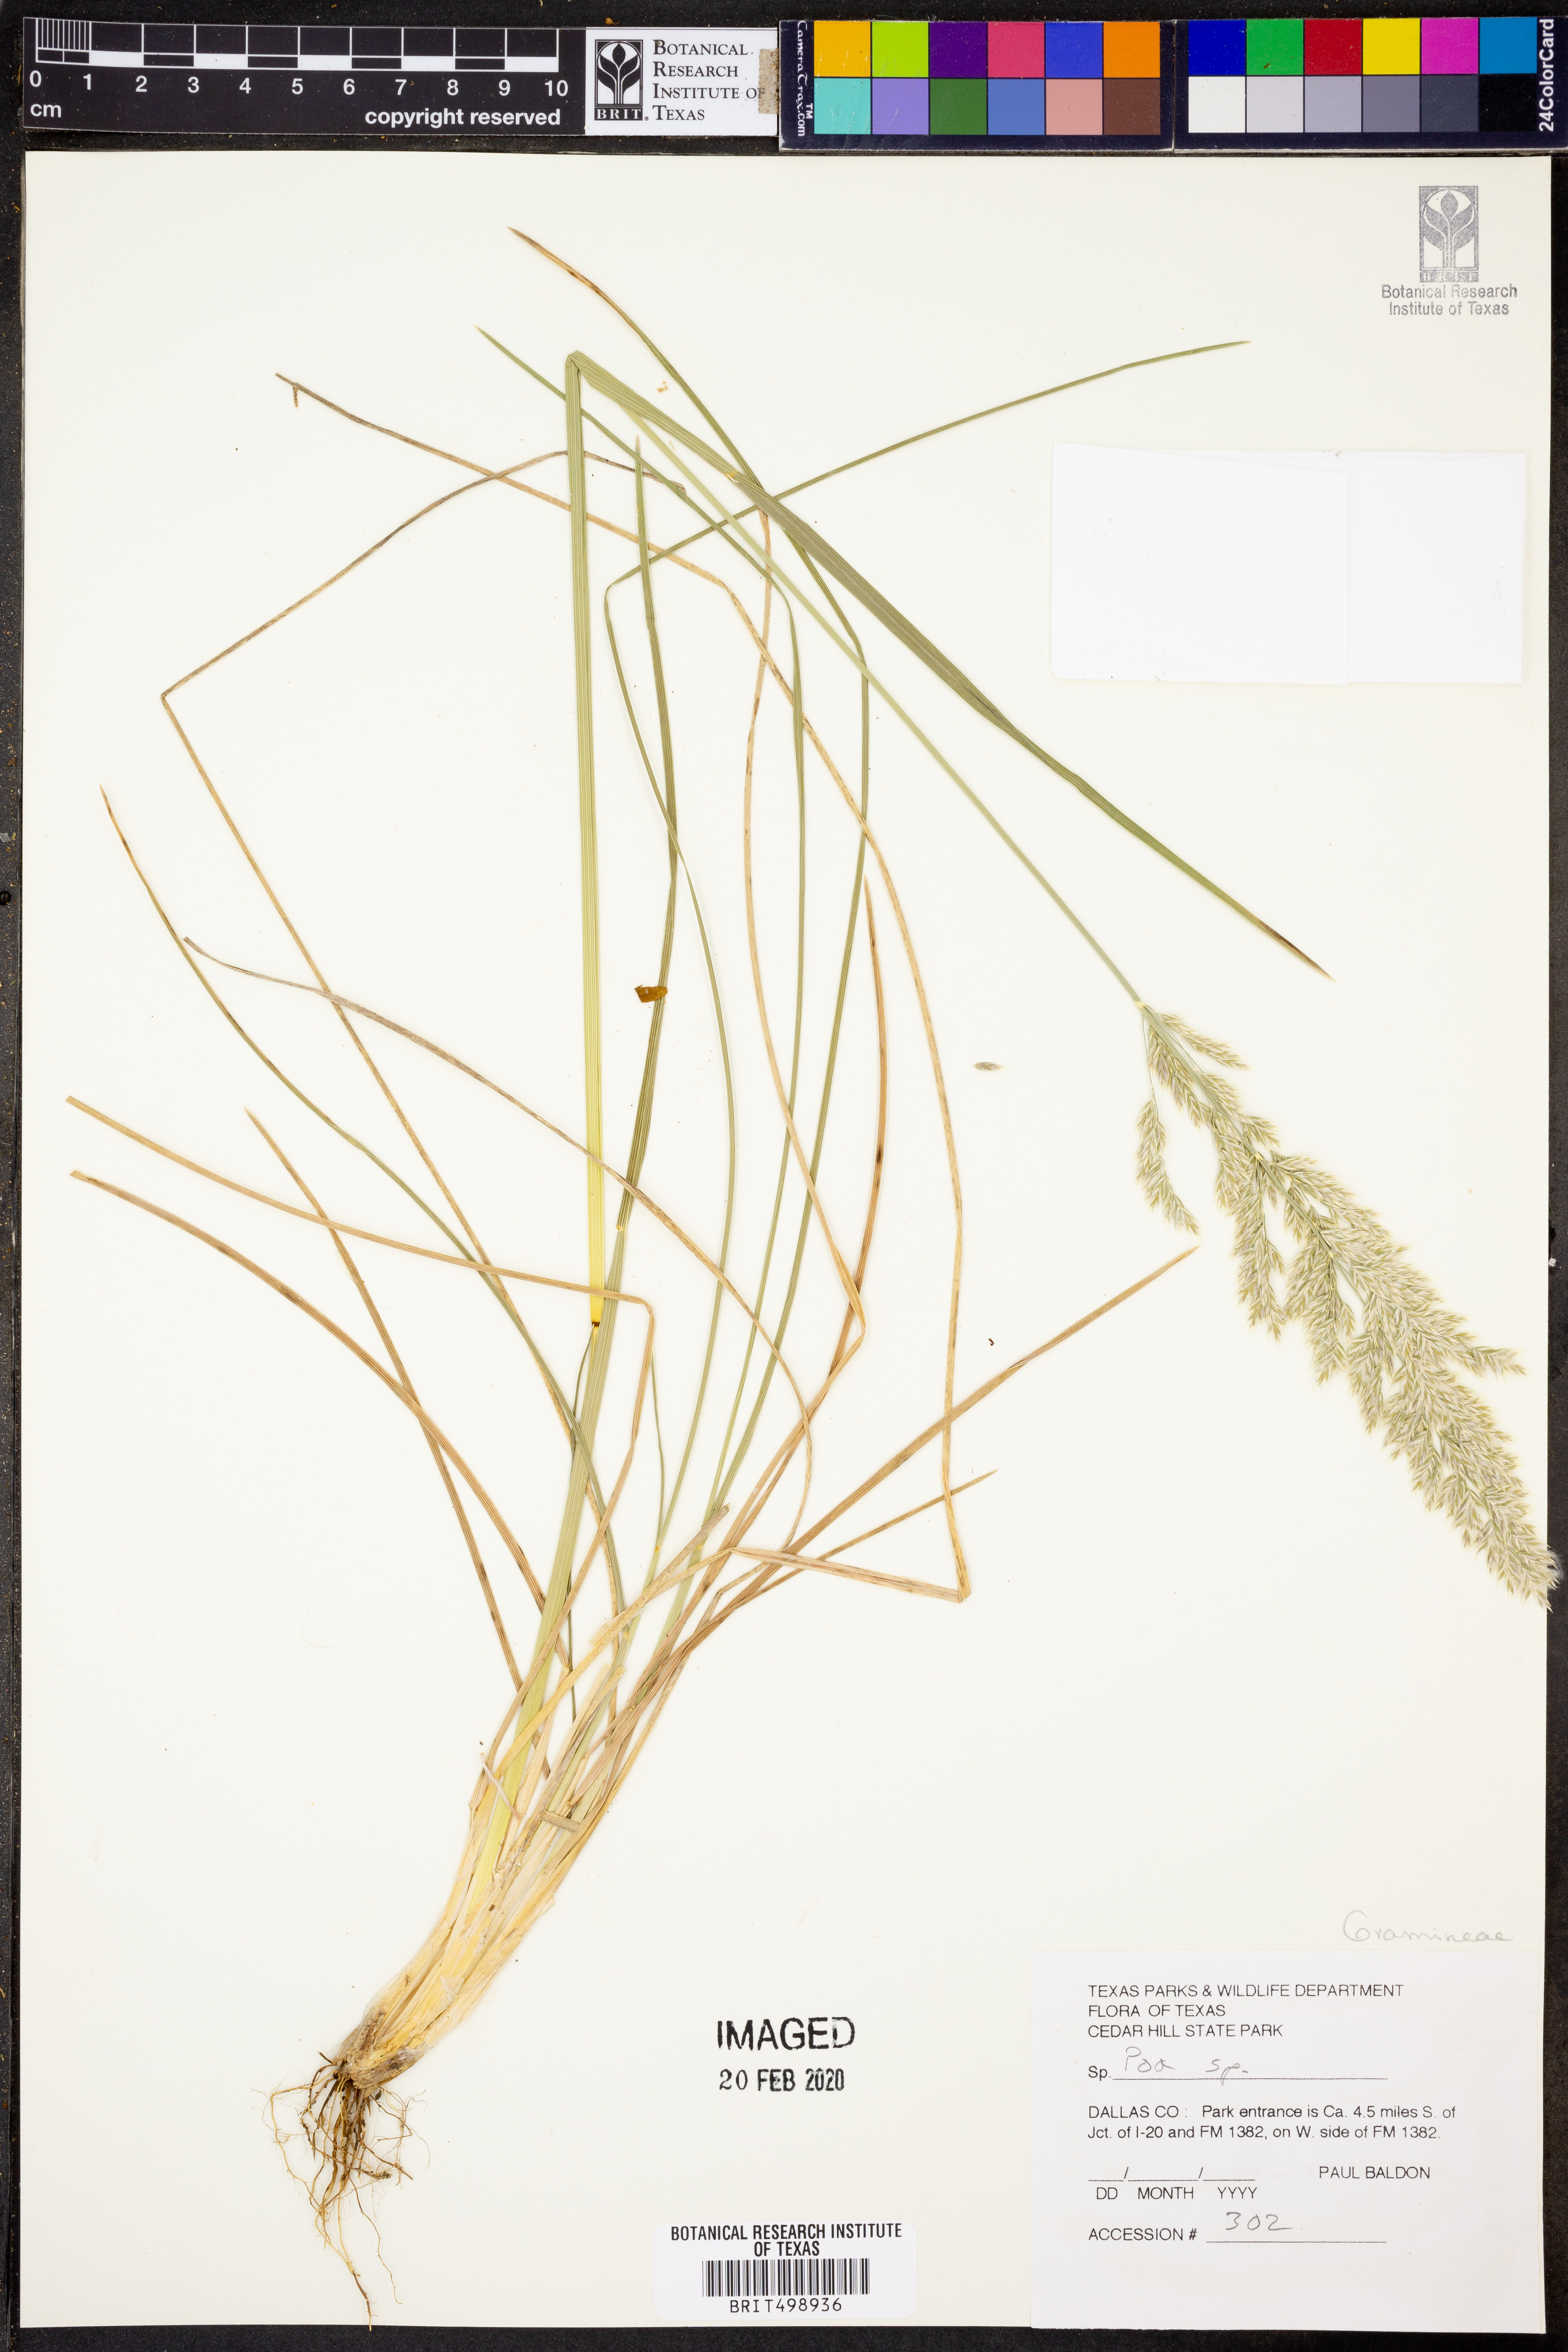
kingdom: Plantae
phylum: Tracheophyta
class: Liliopsida
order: Poales
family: Poaceae
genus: Poa
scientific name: Poa
